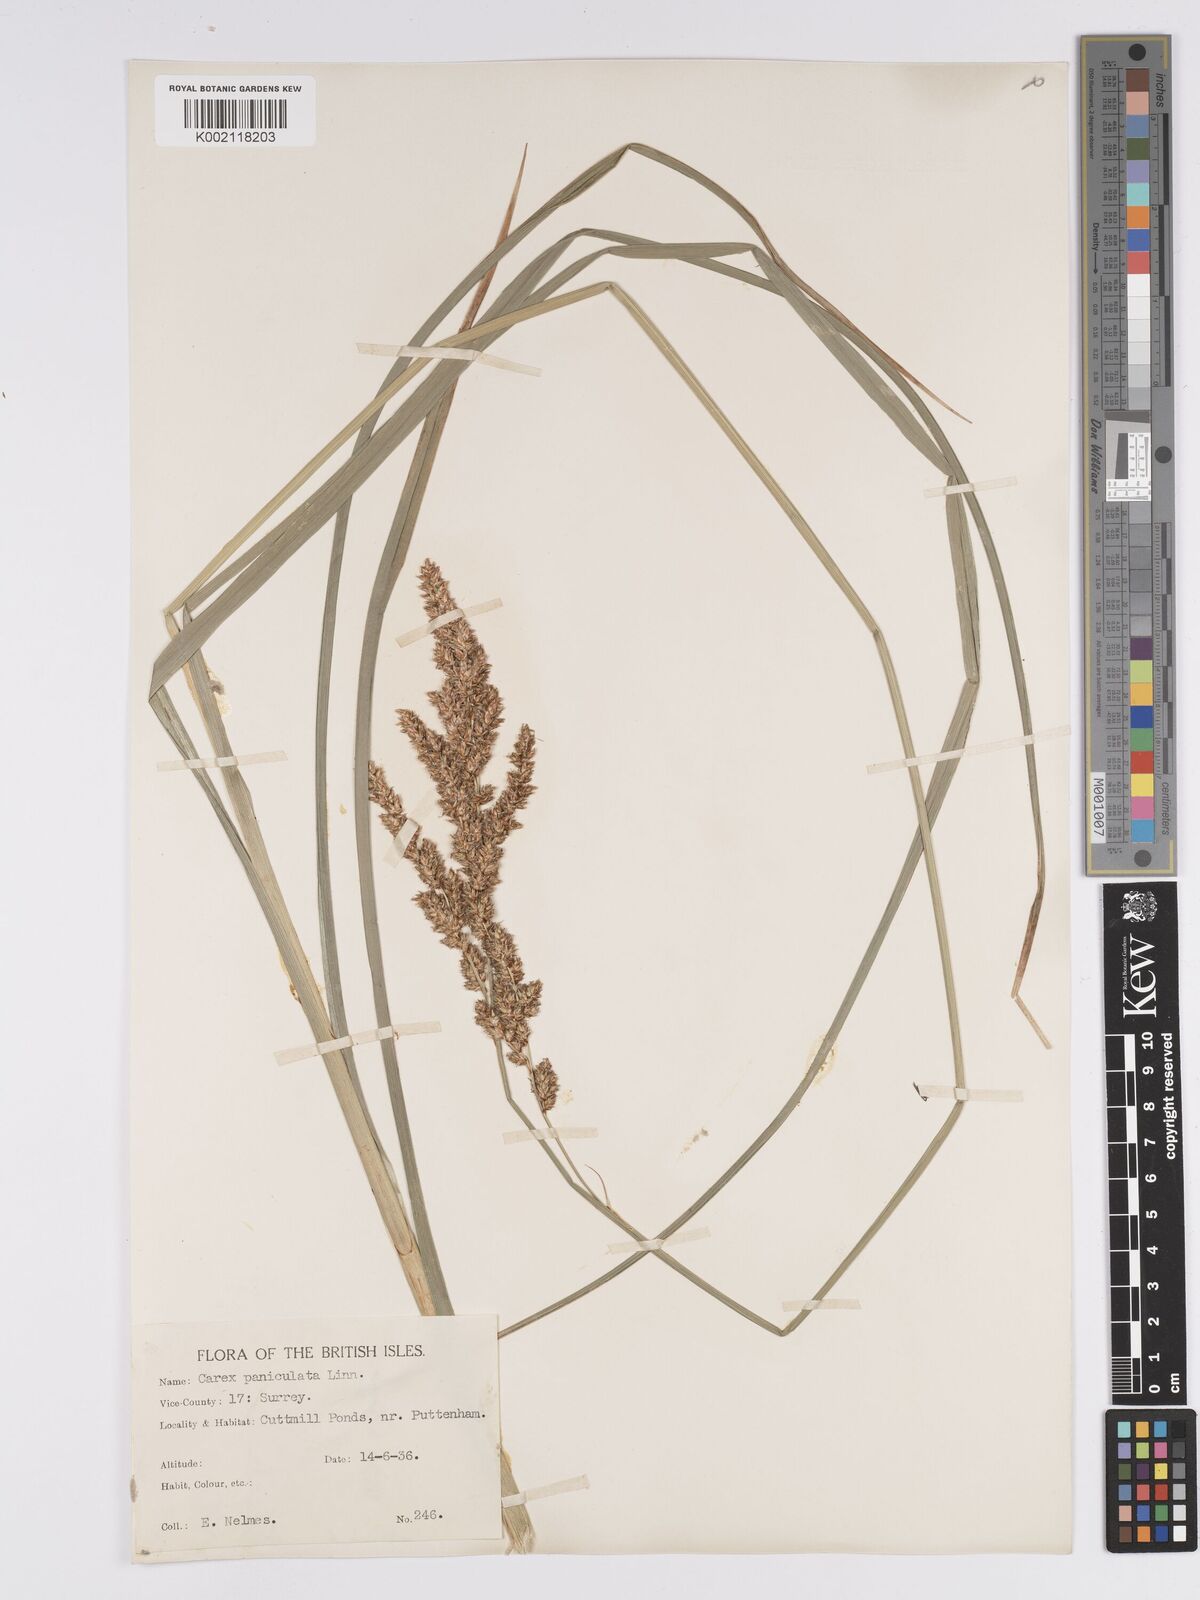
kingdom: Plantae
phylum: Tracheophyta
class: Liliopsida
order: Poales
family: Cyperaceae
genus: Carex
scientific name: Carex paniculata
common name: Greater tussock-sedge
